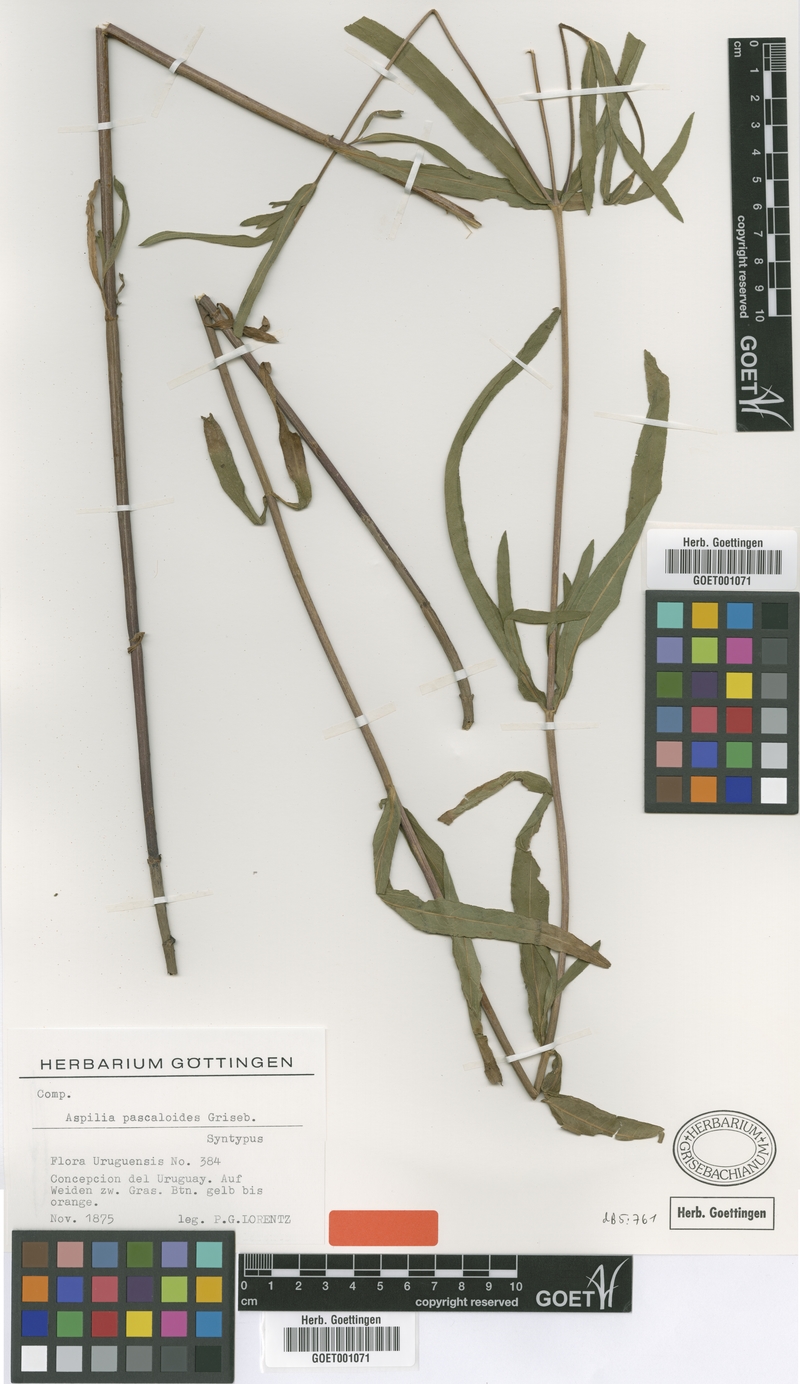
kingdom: Plantae
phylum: Tracheophyta
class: Magnoliopsida
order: Asterales
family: Asteraceae
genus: Wedelia
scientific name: Wedelia pascalioides
